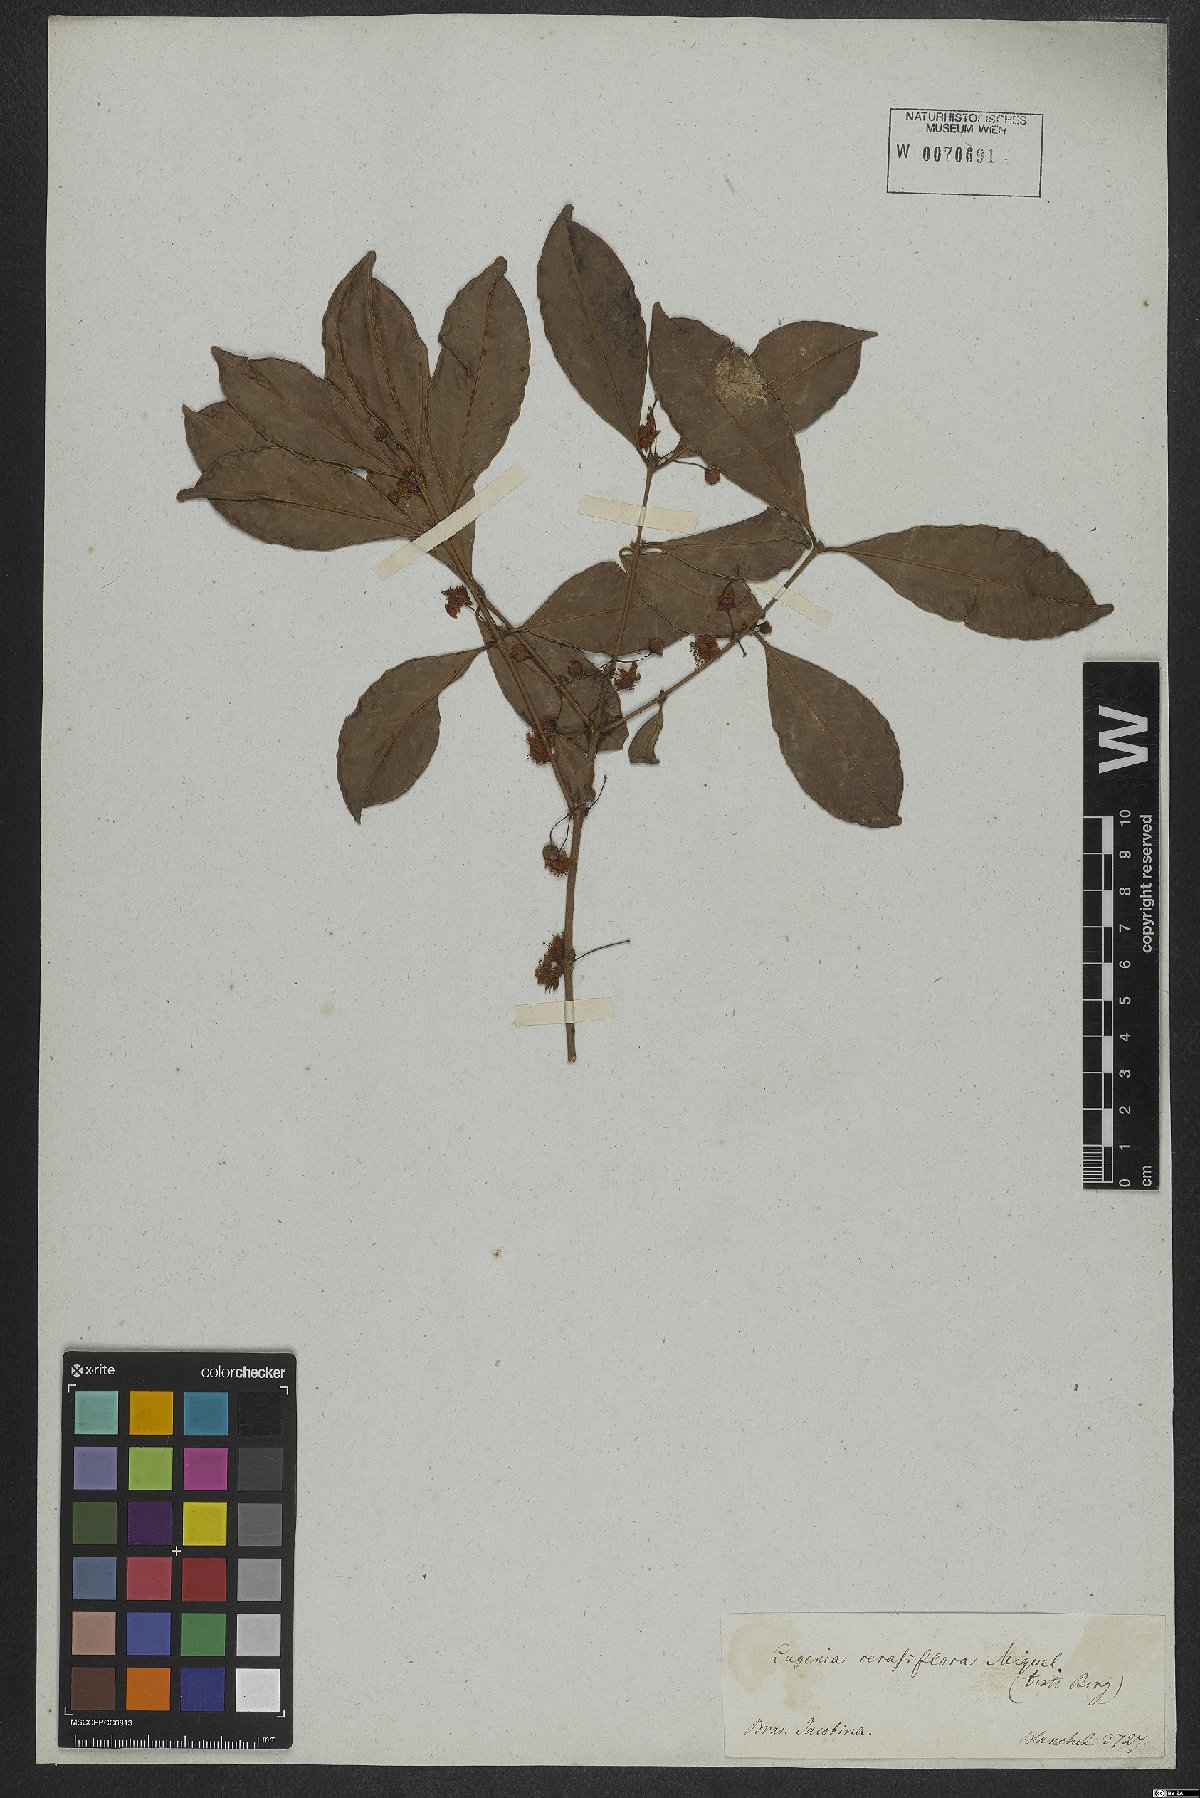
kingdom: Plantae
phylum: Tracheophyta
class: Magnoliopsida
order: Myrtales
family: Myrtaceae
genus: Eugenia
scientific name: Eugenia cerasiflora
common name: Cherry-of-the-rio-grande
